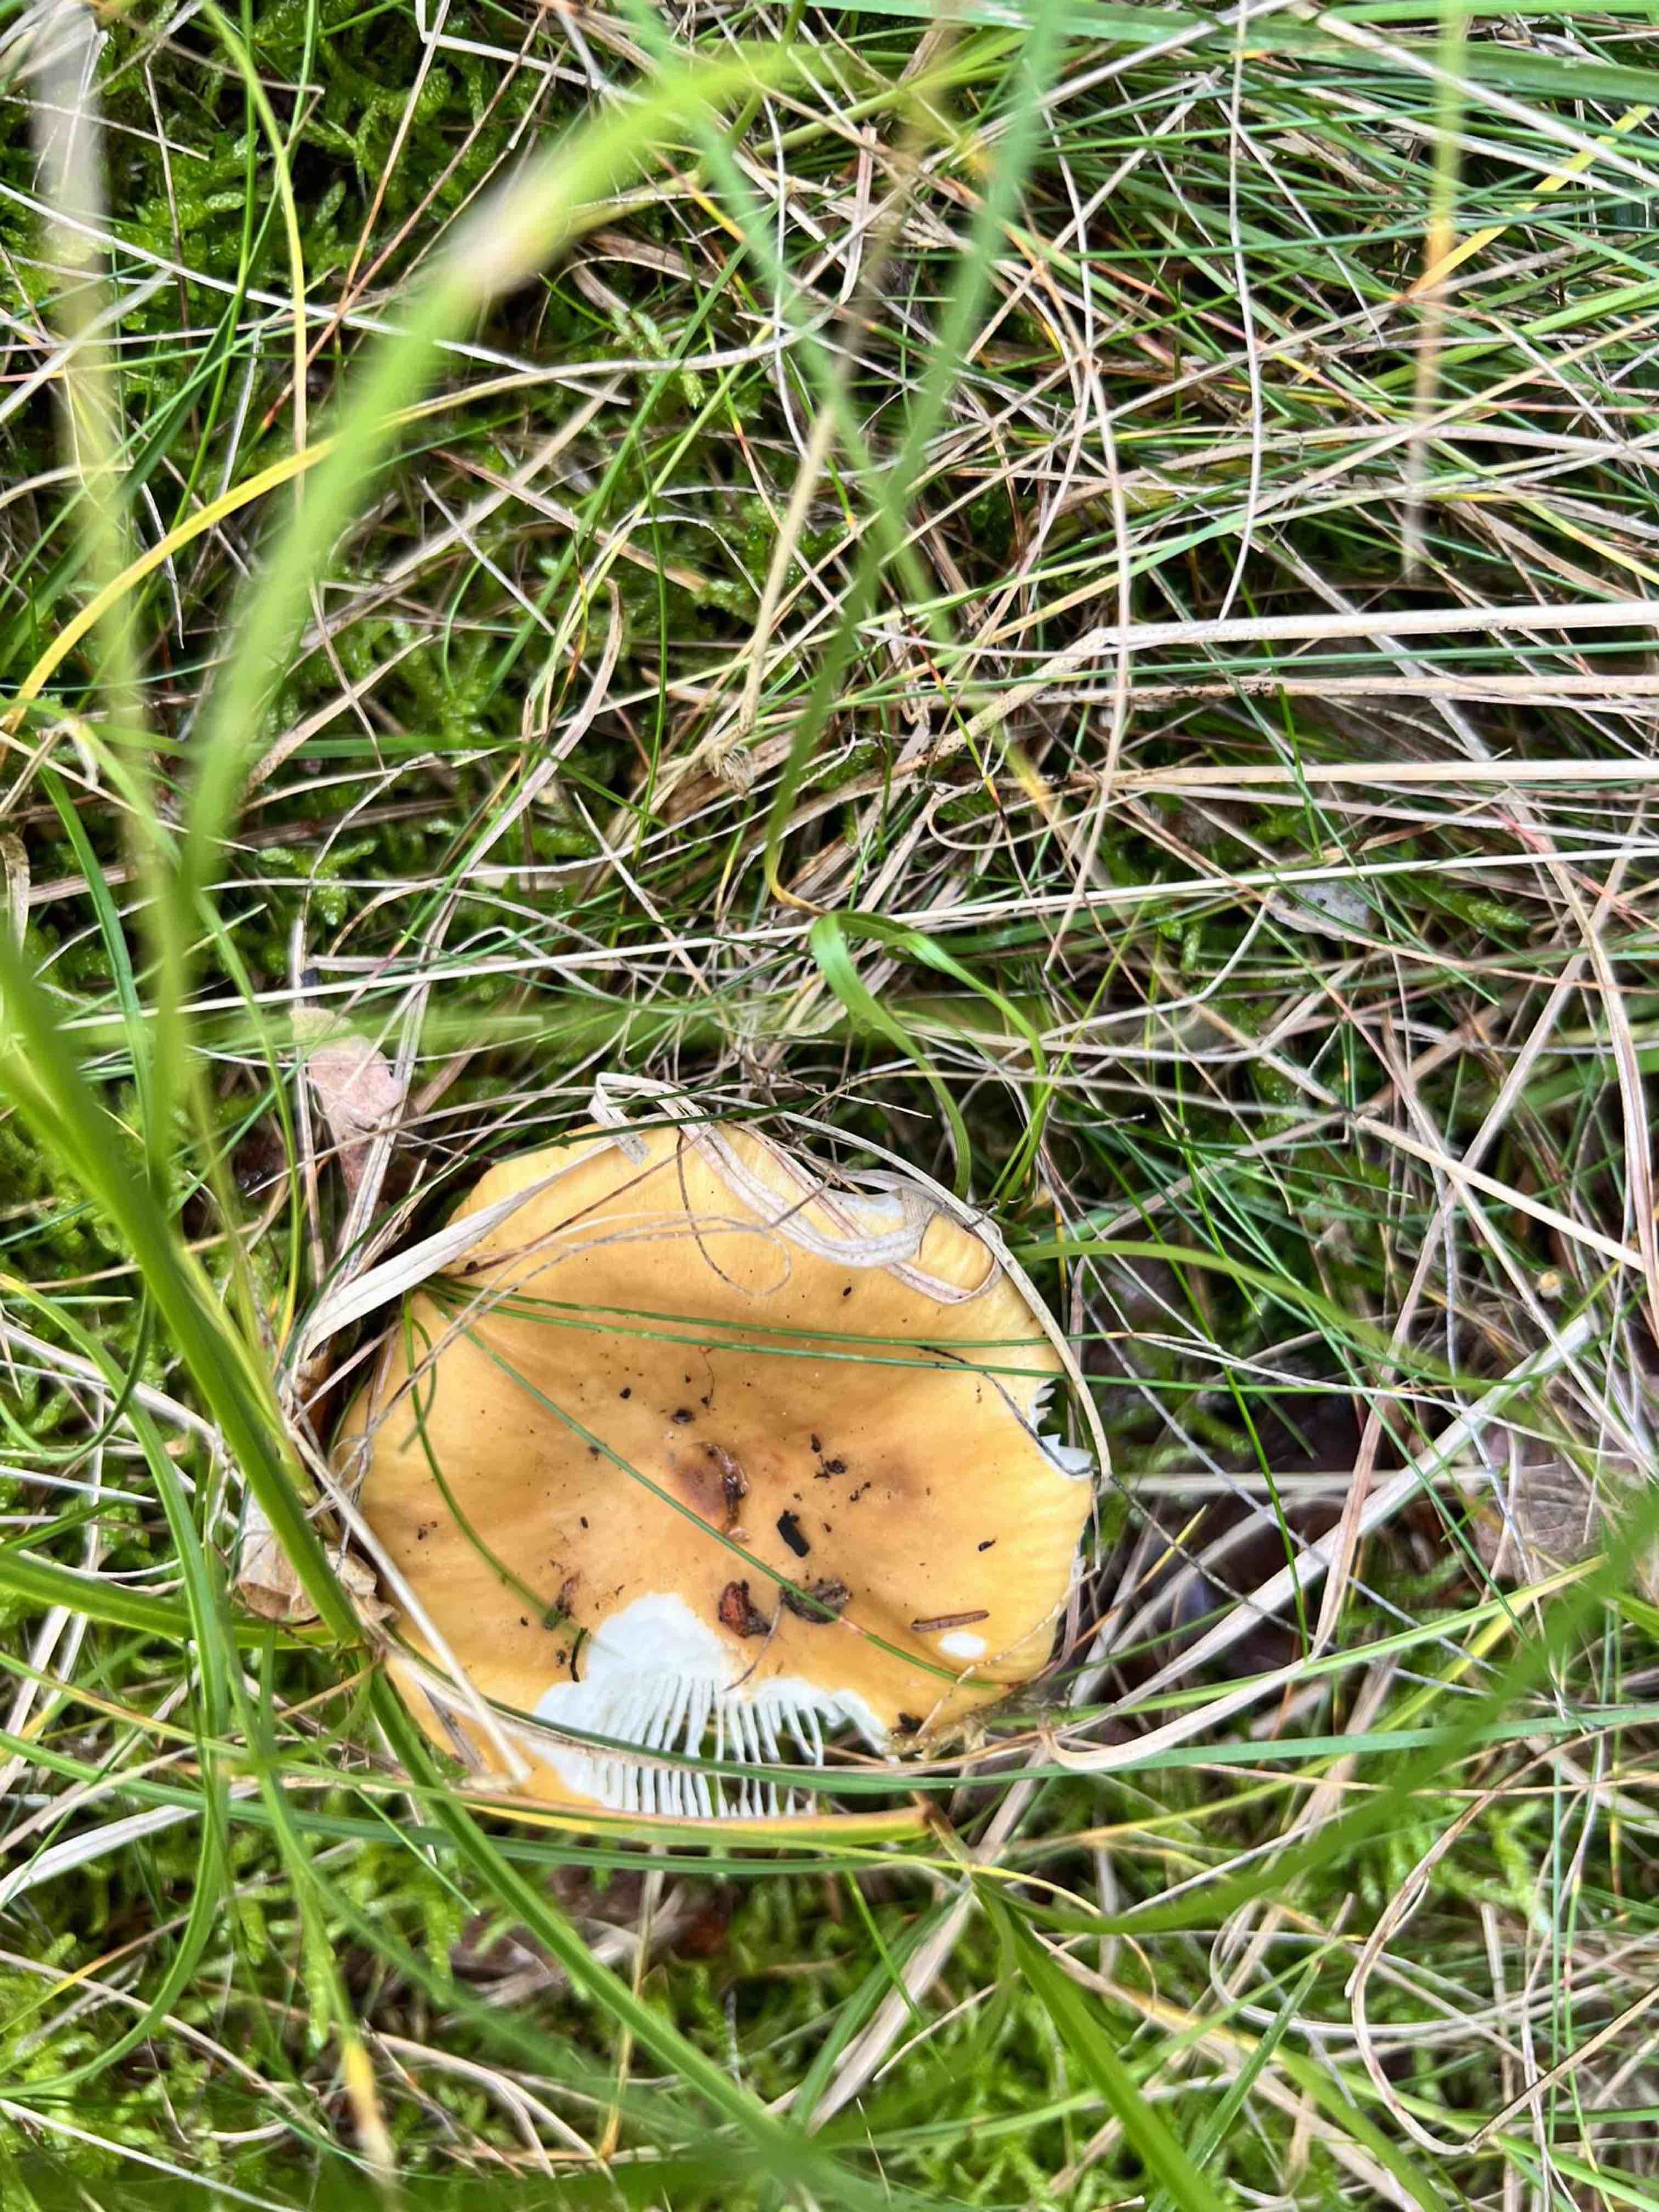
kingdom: Fungi
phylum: Basidiomycota
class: Agaricomycetes
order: Russulales
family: Russulaceae
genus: Russula
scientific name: Russula
